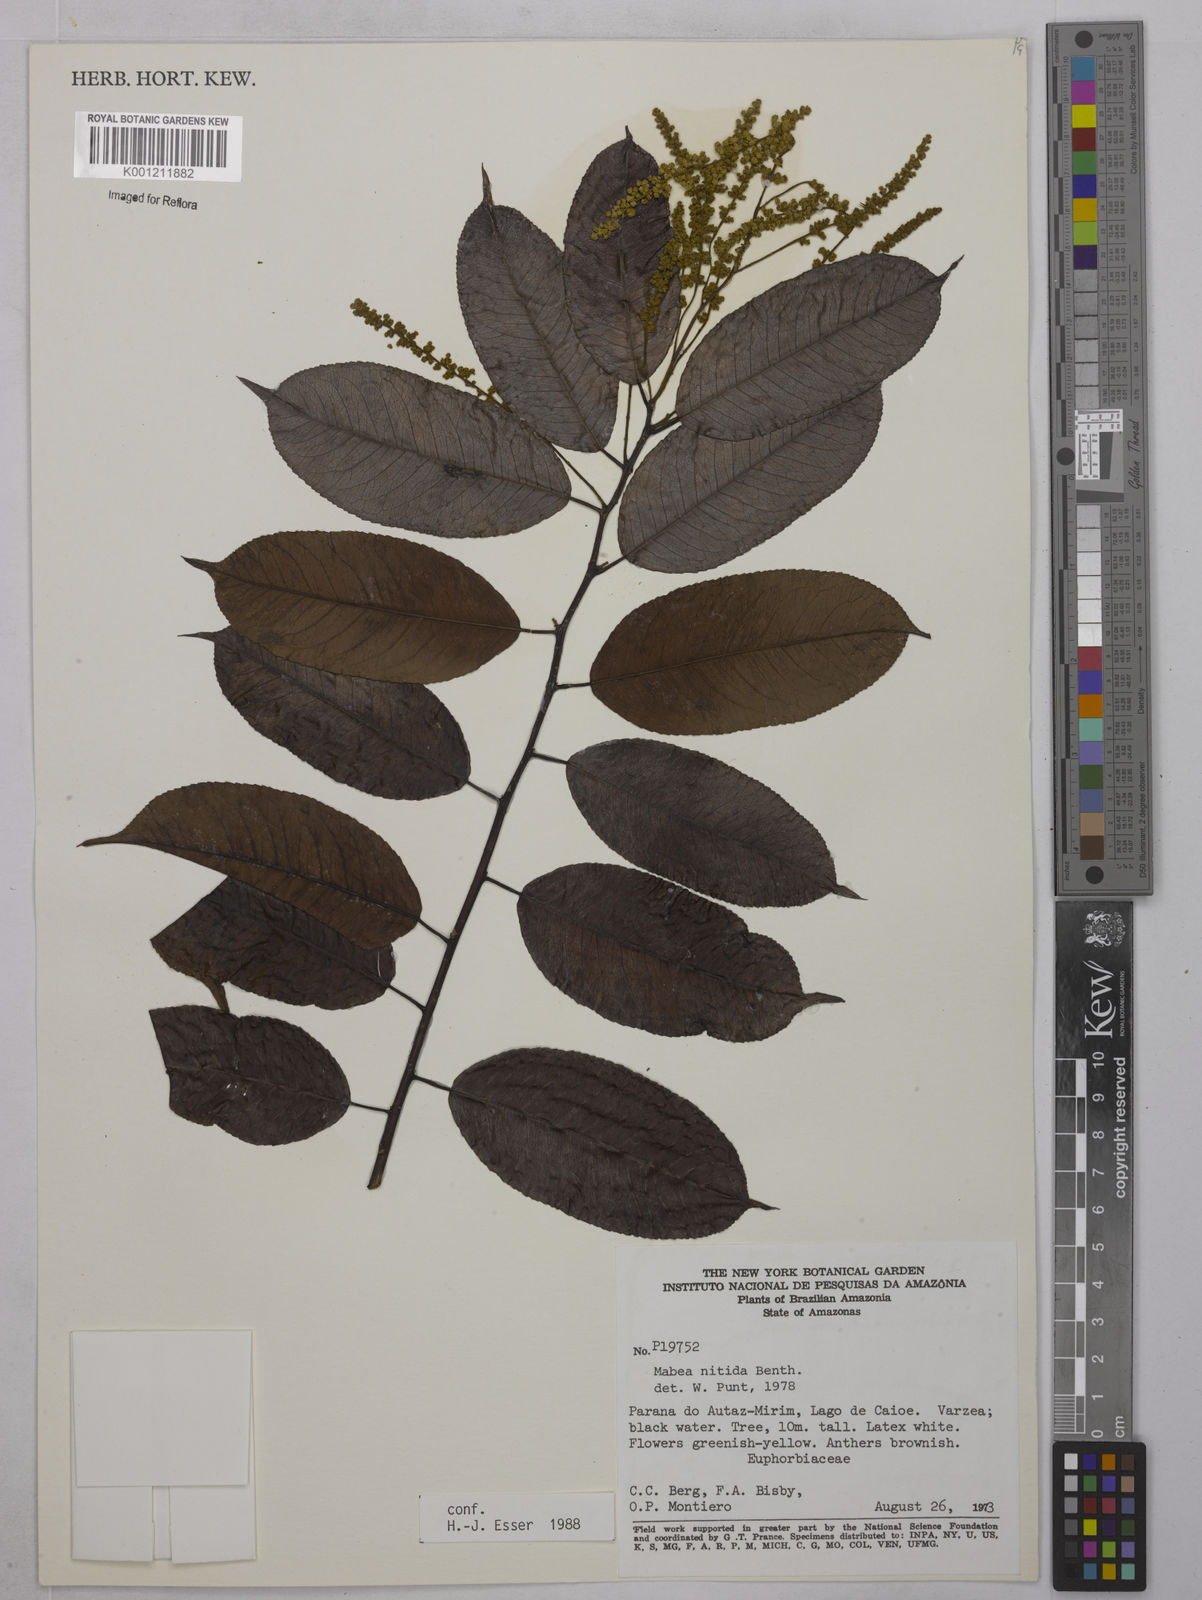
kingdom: Plantae
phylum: Tracheophyta
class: Magnoliopsida
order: Malpighiales
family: Euphorbiaceae
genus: Mabea
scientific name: Mabea nitida
